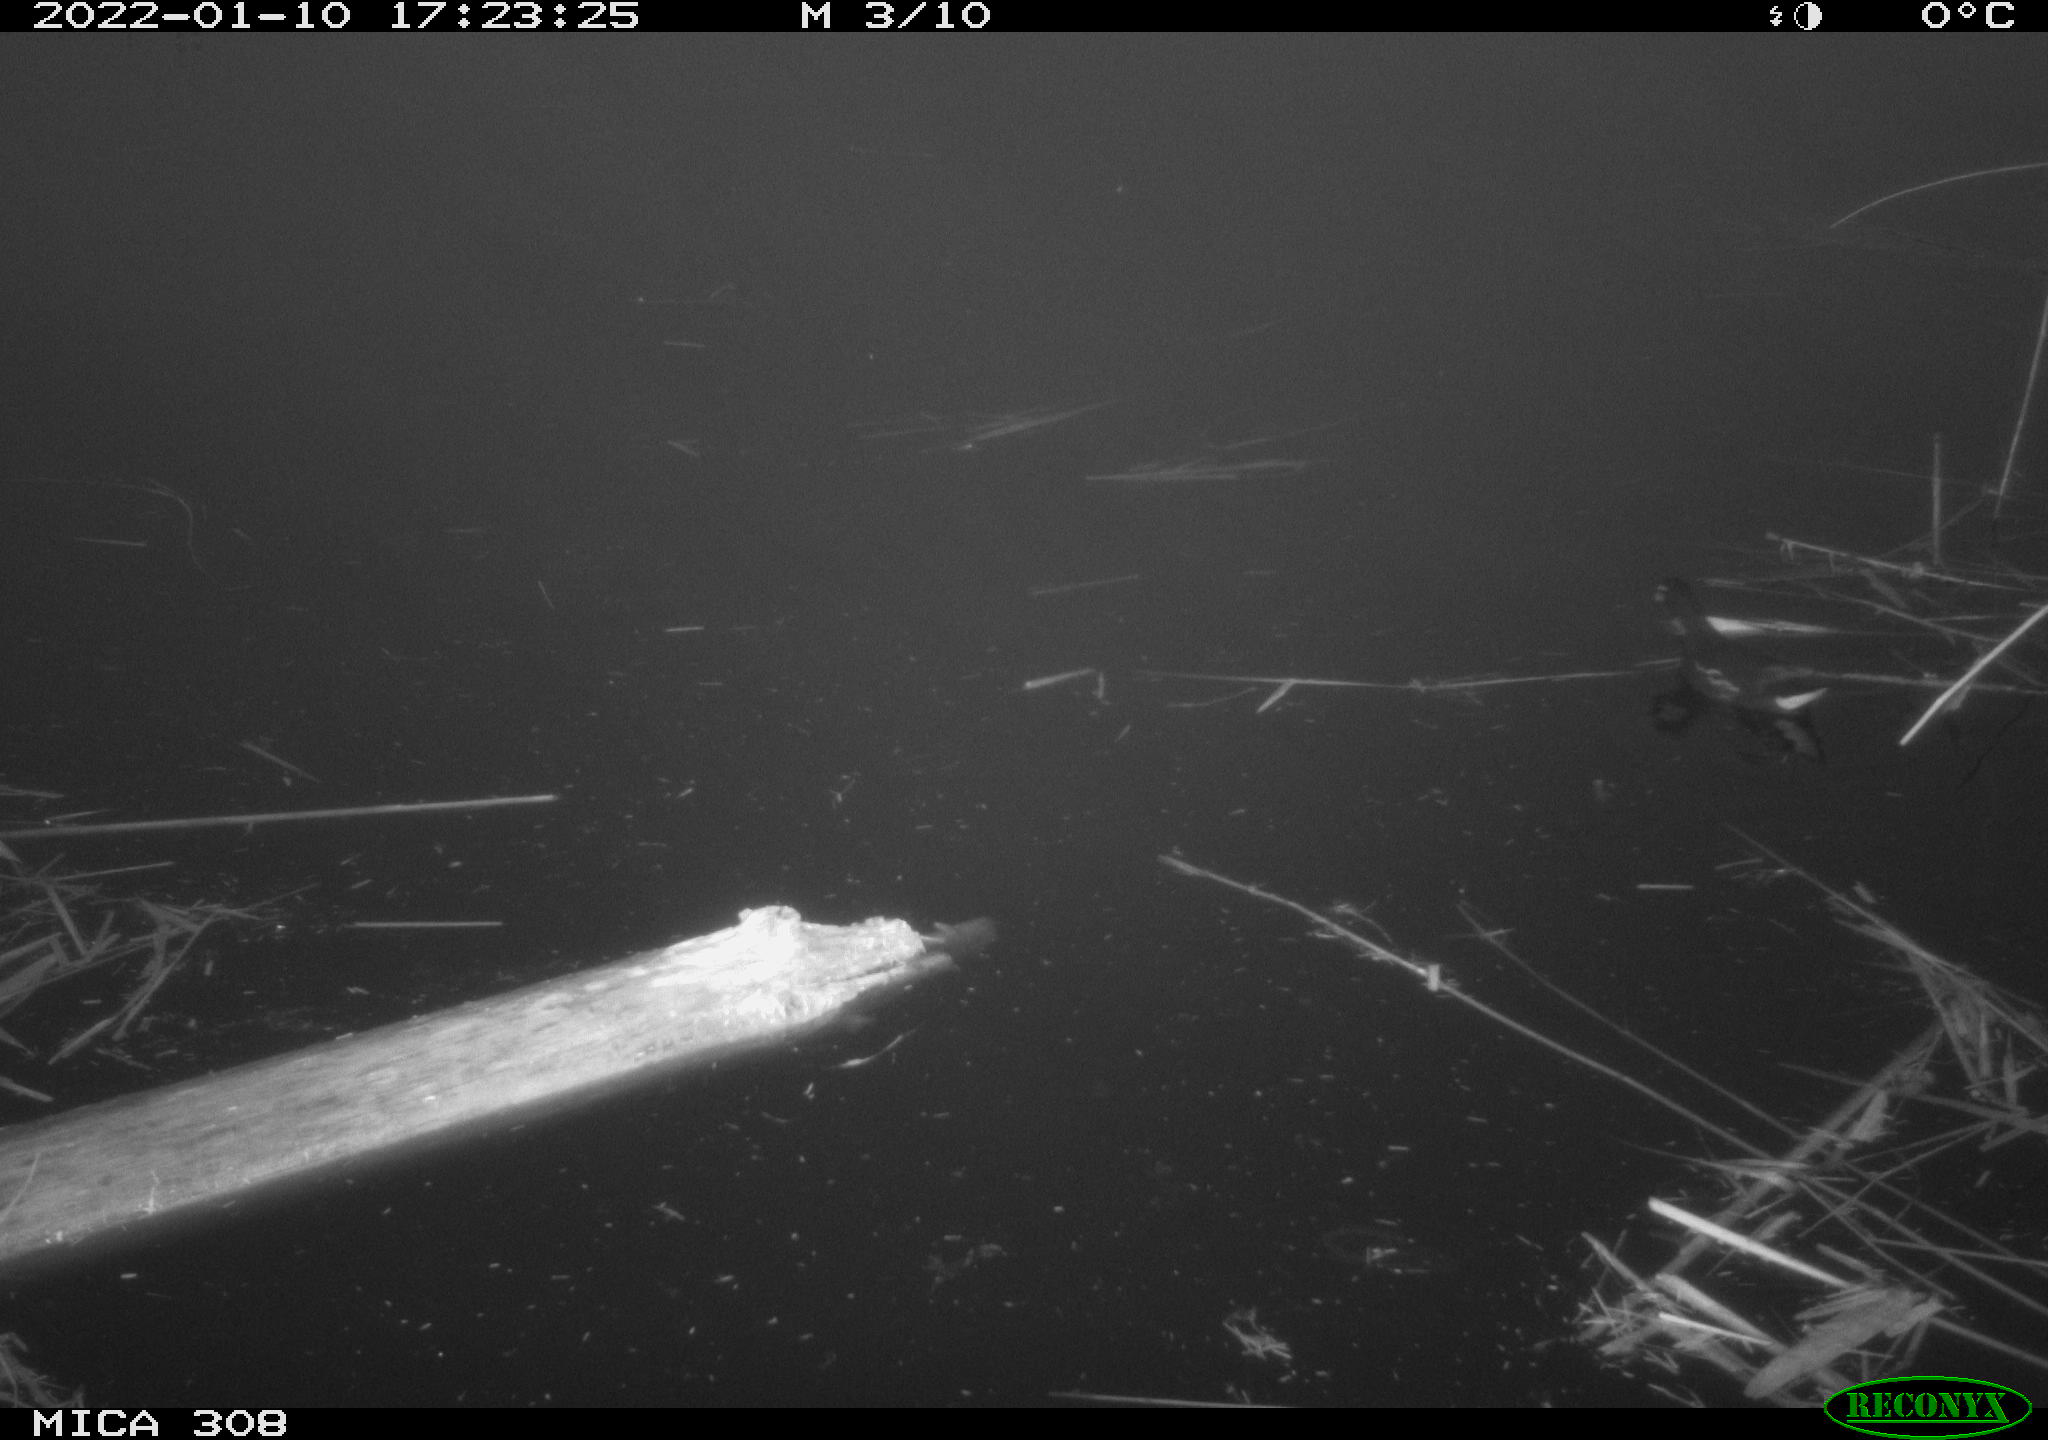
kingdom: Animalia
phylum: Chordata
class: Aves
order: Gruiformes
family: Rallidae
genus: Gallinula
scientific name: Gallinula chloropus
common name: Common moorhen
